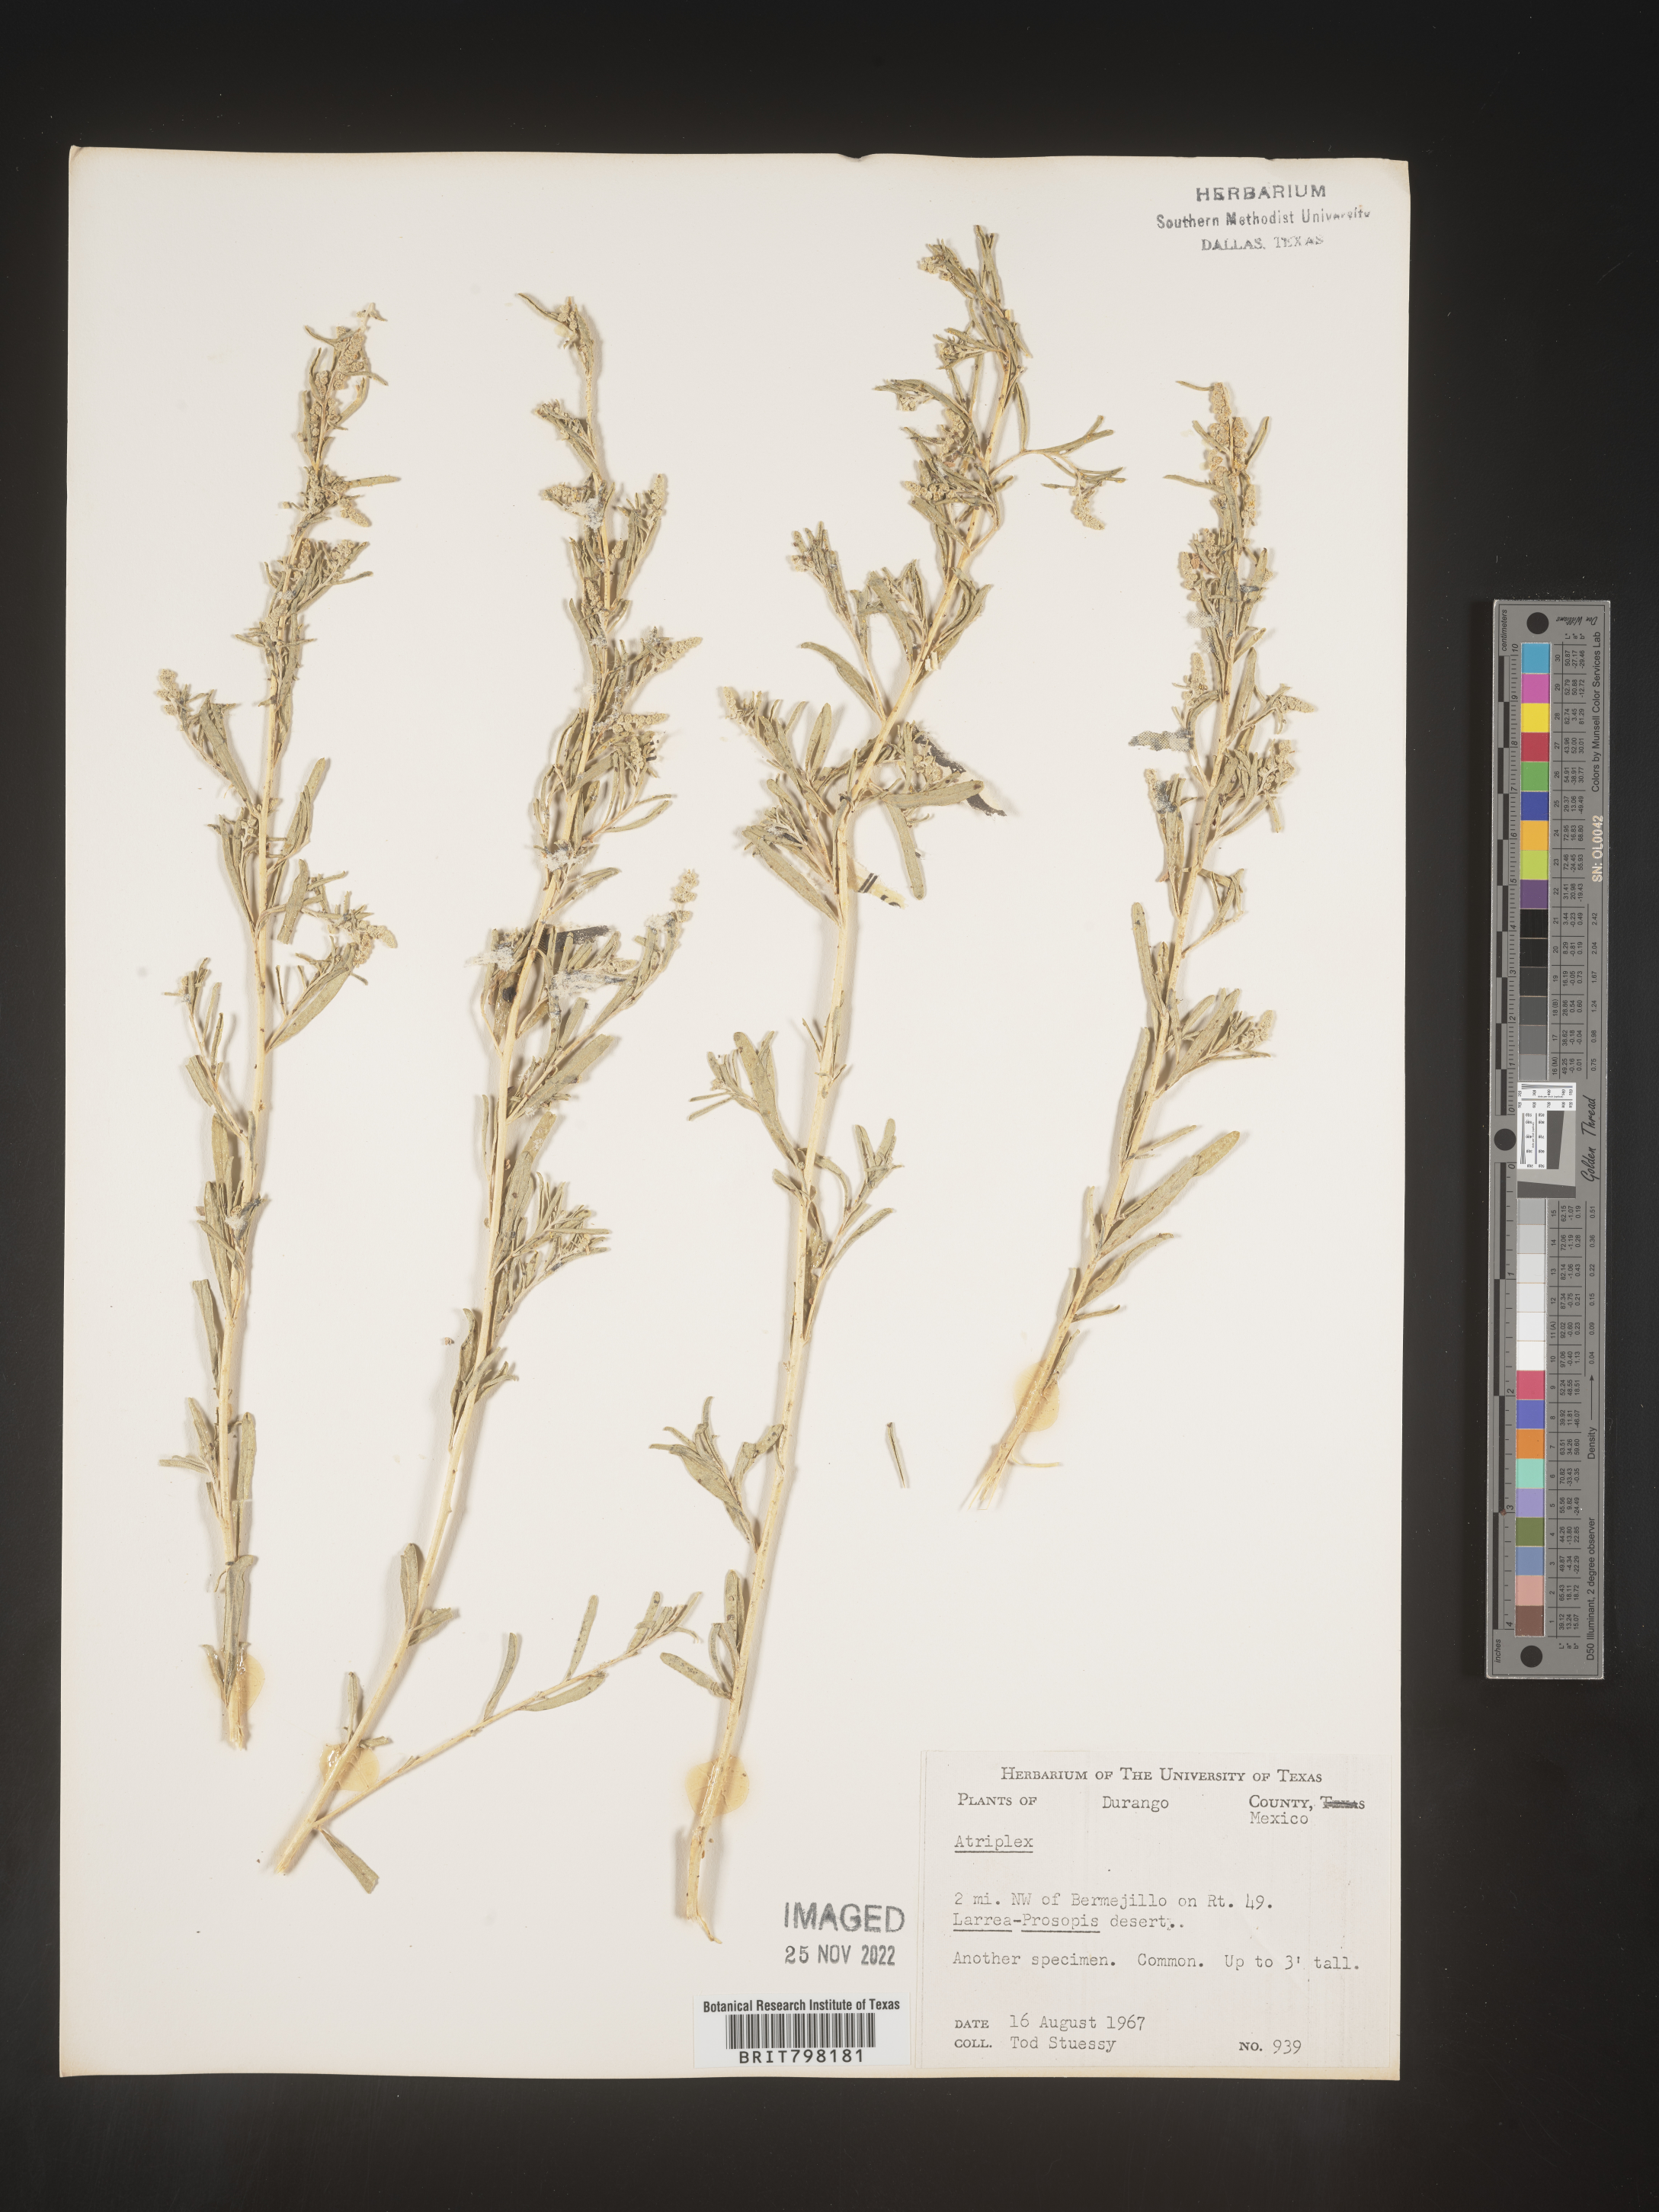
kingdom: Plantae
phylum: Tracheophyta
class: Magnoliopsida
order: Caryophyllales
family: Amaranthaceae
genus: Atriplex
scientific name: Atriplex
